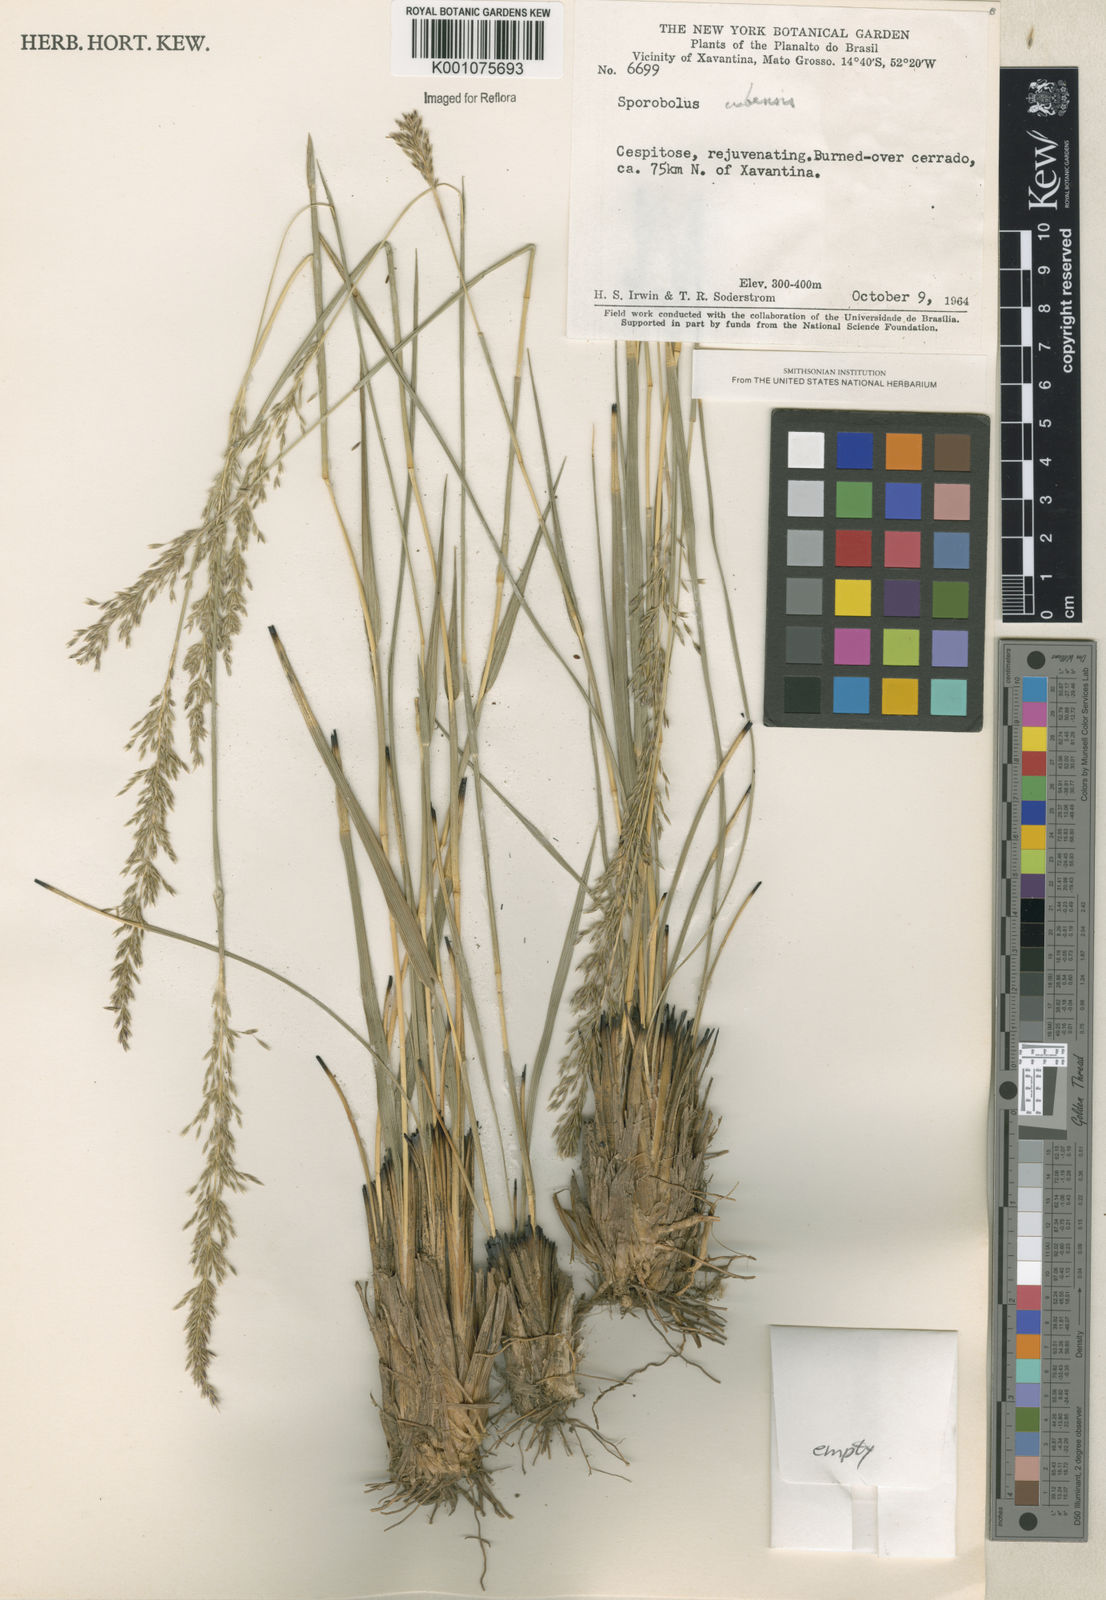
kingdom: Plantae
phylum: Tracheophyta
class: Liliopsida
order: Poales
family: Poaceae
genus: Sporobolus
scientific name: Sporobolus cubensis
